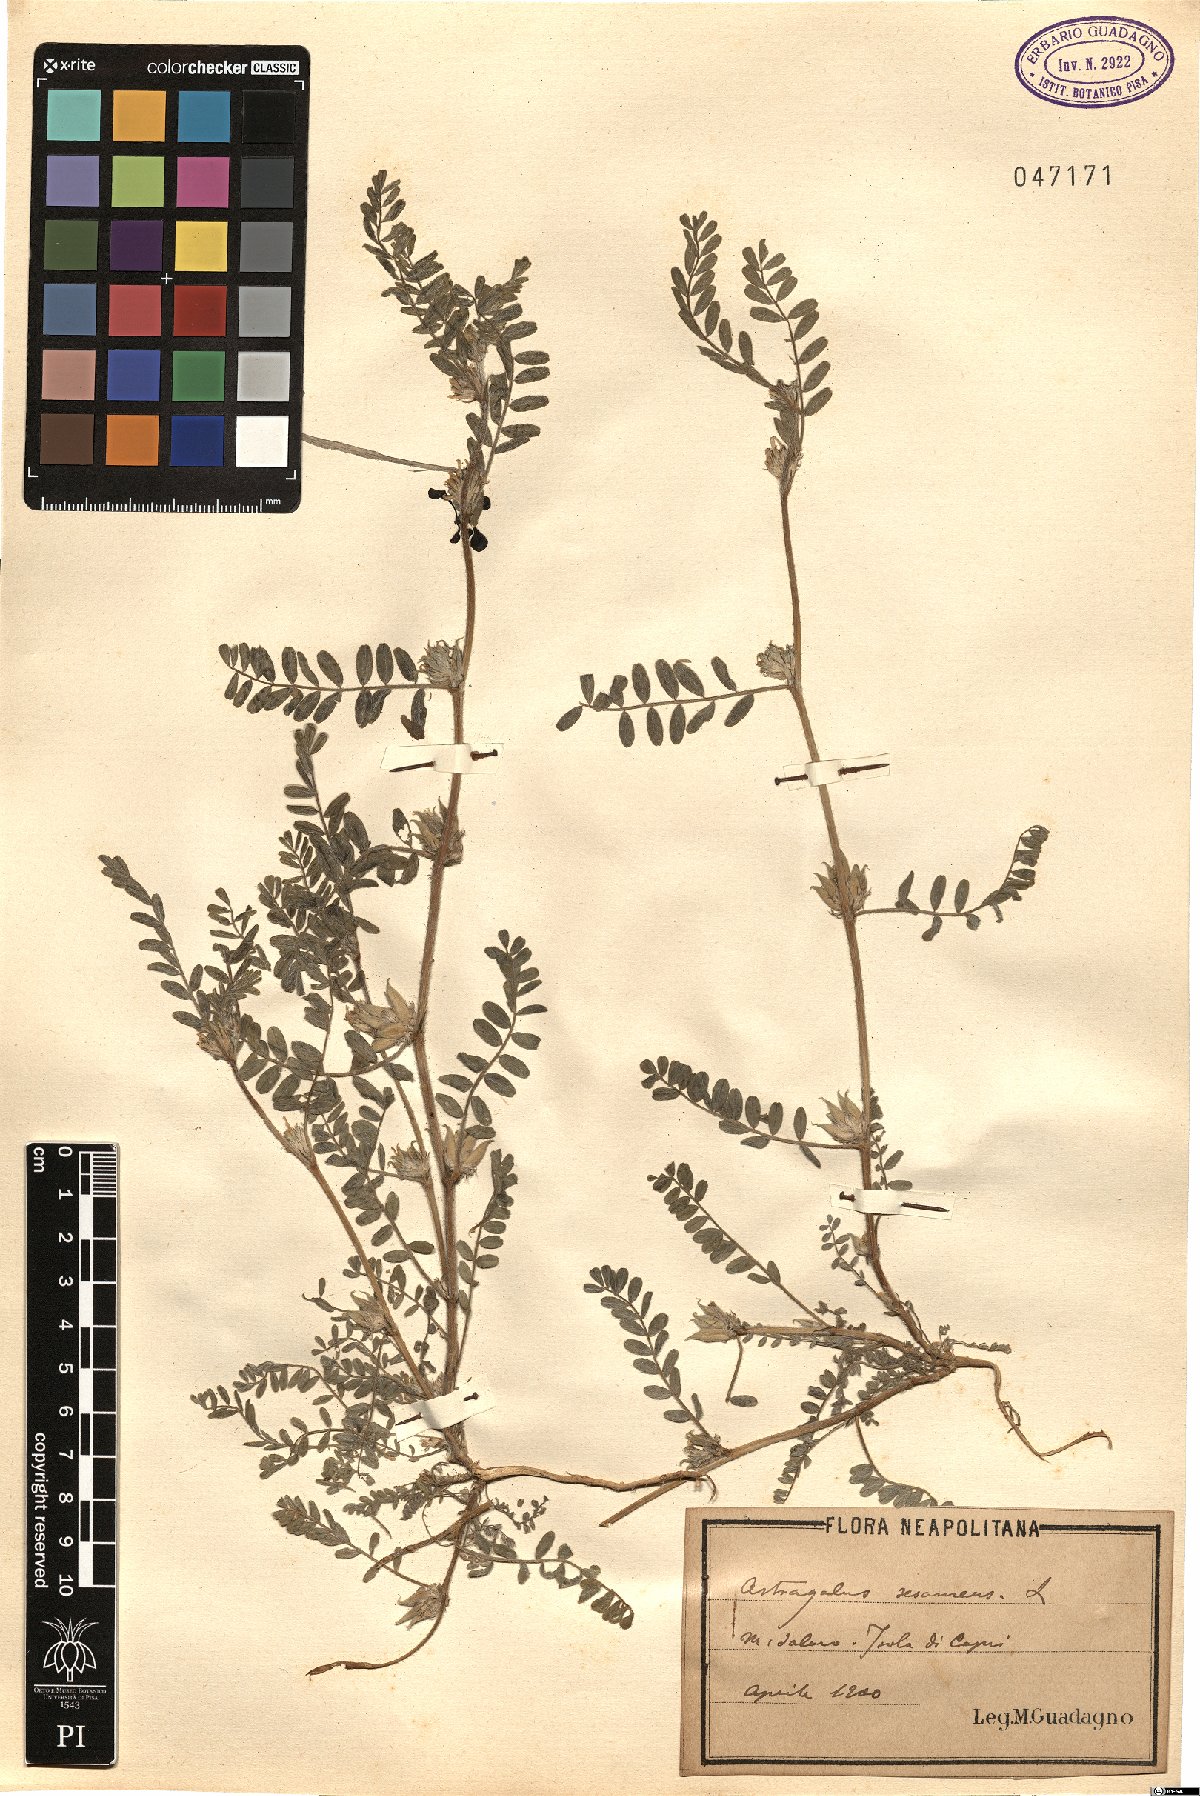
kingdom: Plantae
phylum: Tracheophyta
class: Magnoliopsida
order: Fabales
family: Fabaceae
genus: Astragalus
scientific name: Astragalus sesameus
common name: Purple milk-vetch
